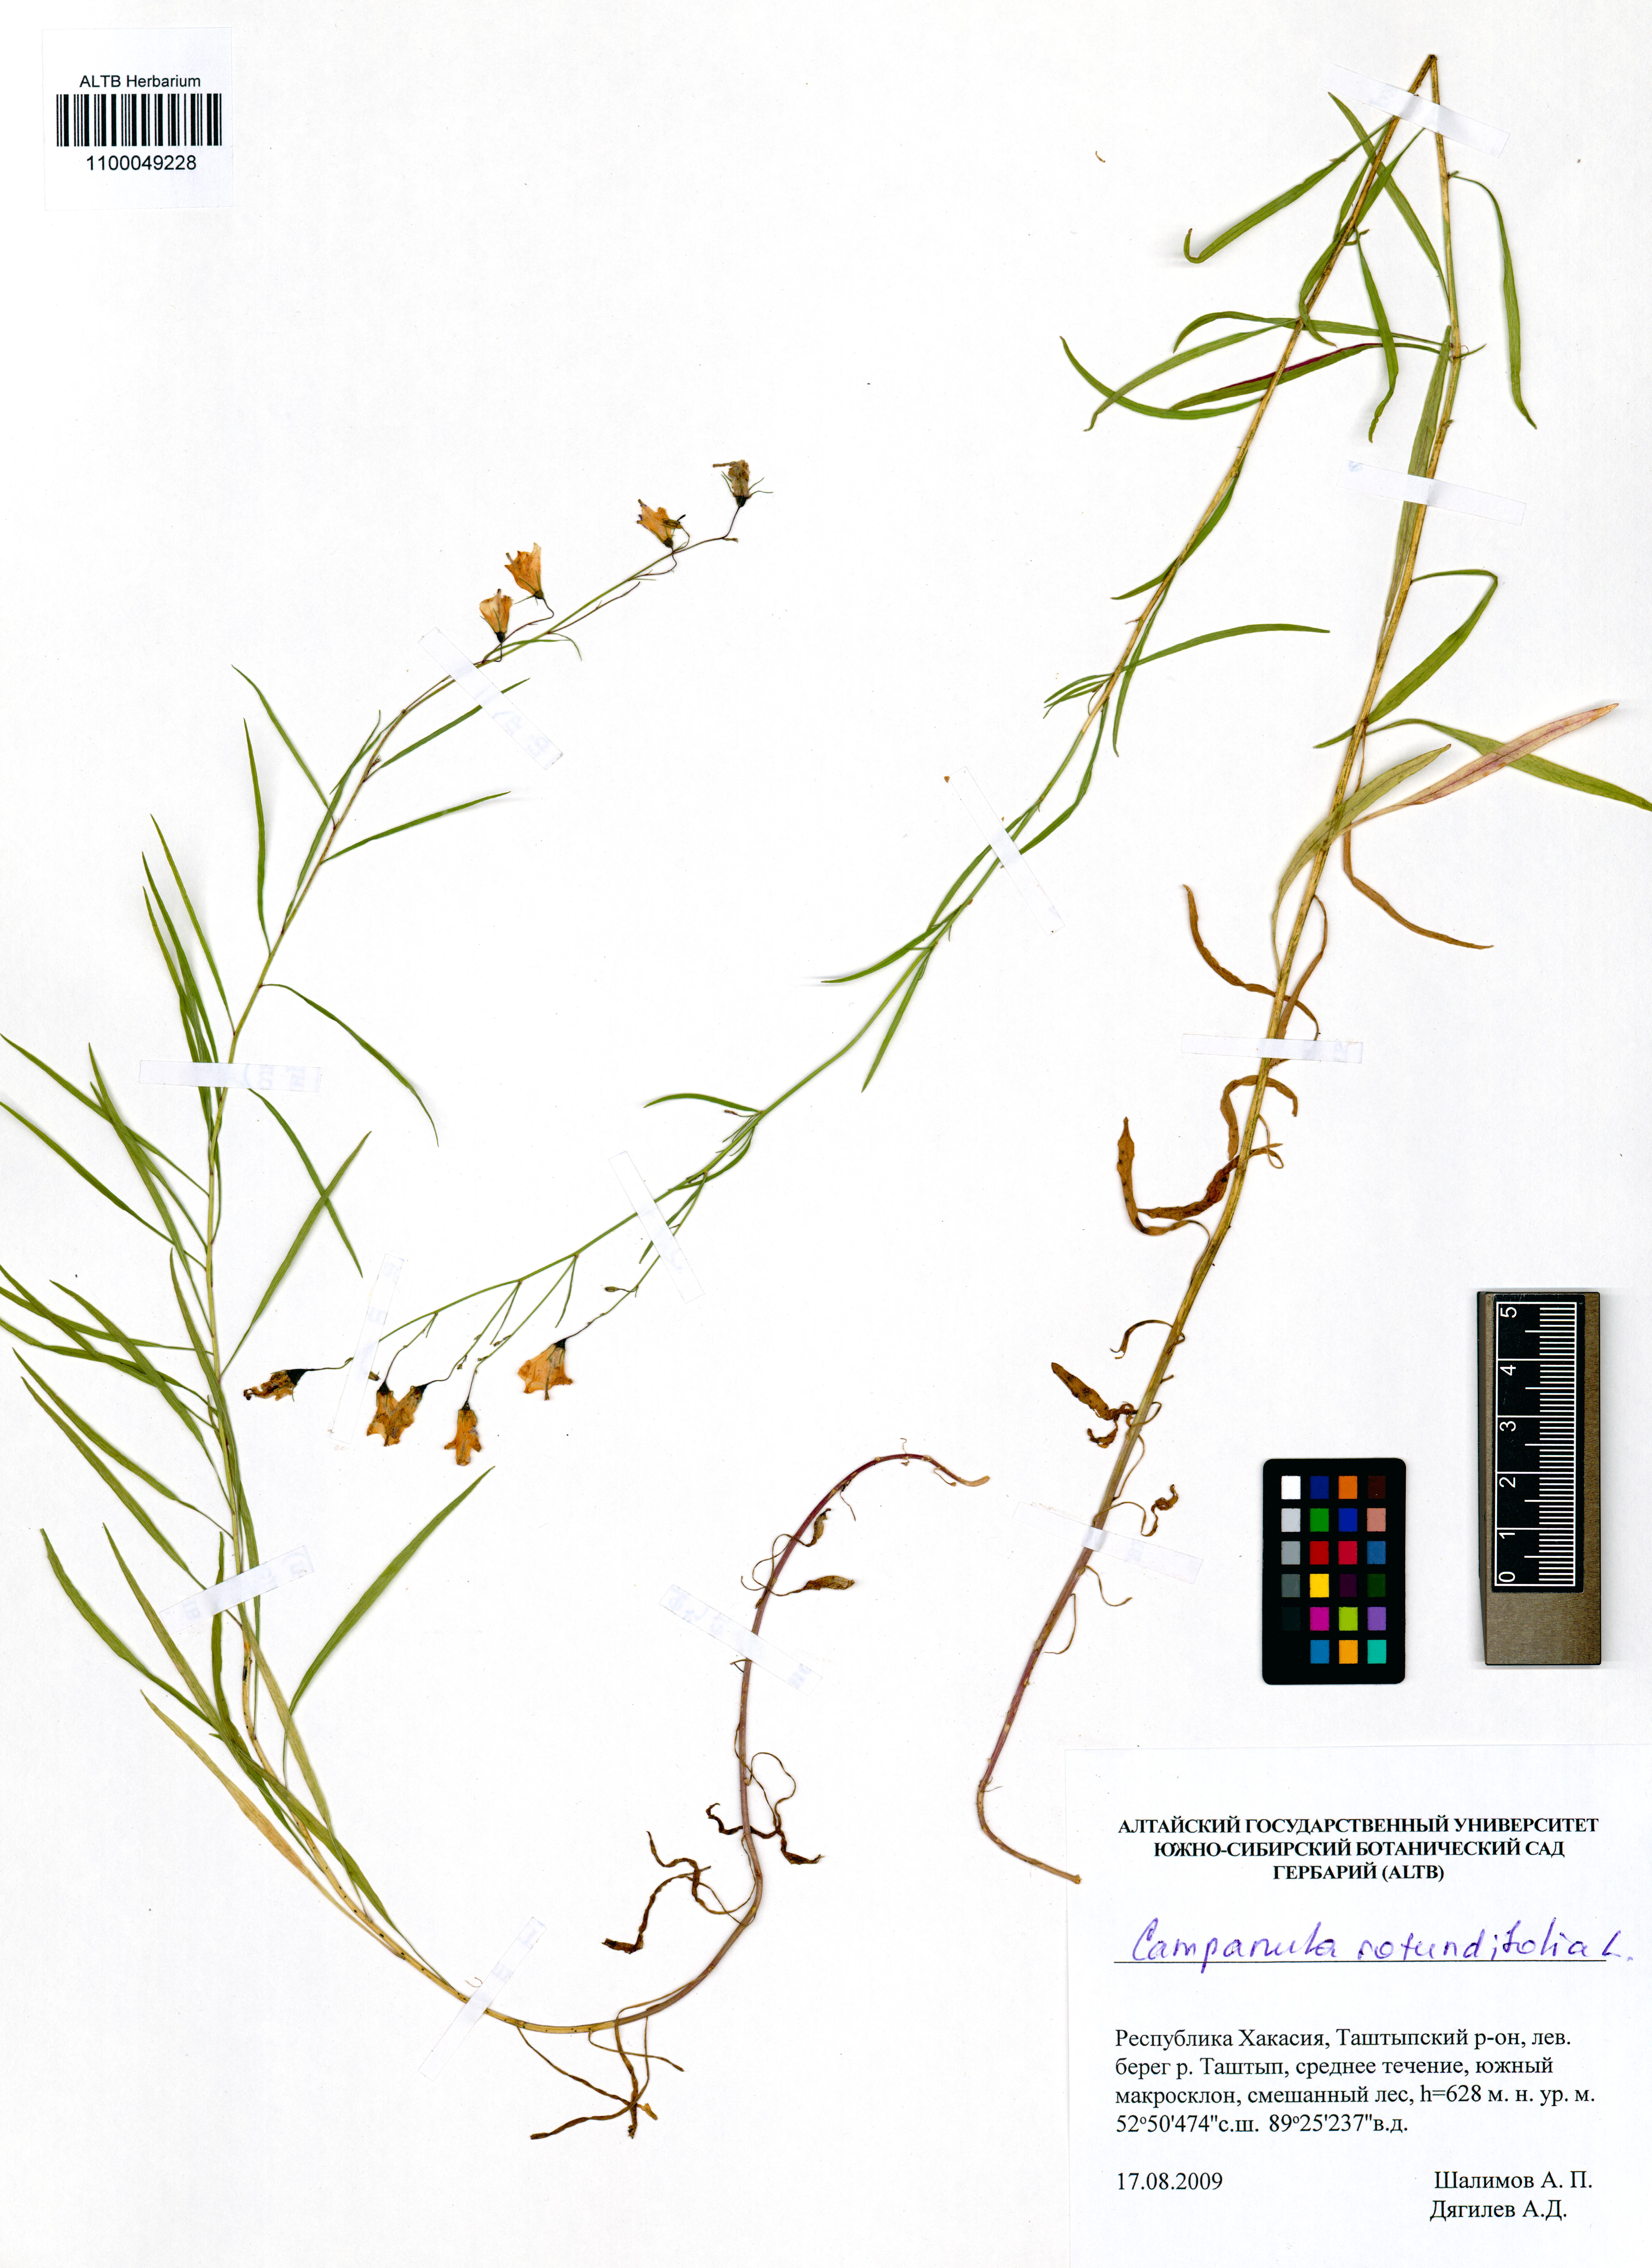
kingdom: Plantae
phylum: Tracheophyta
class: Magnoliopsida
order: Asterales
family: Campanulaceae
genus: Campanula
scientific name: Campanula rotundifolia
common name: Harebell
